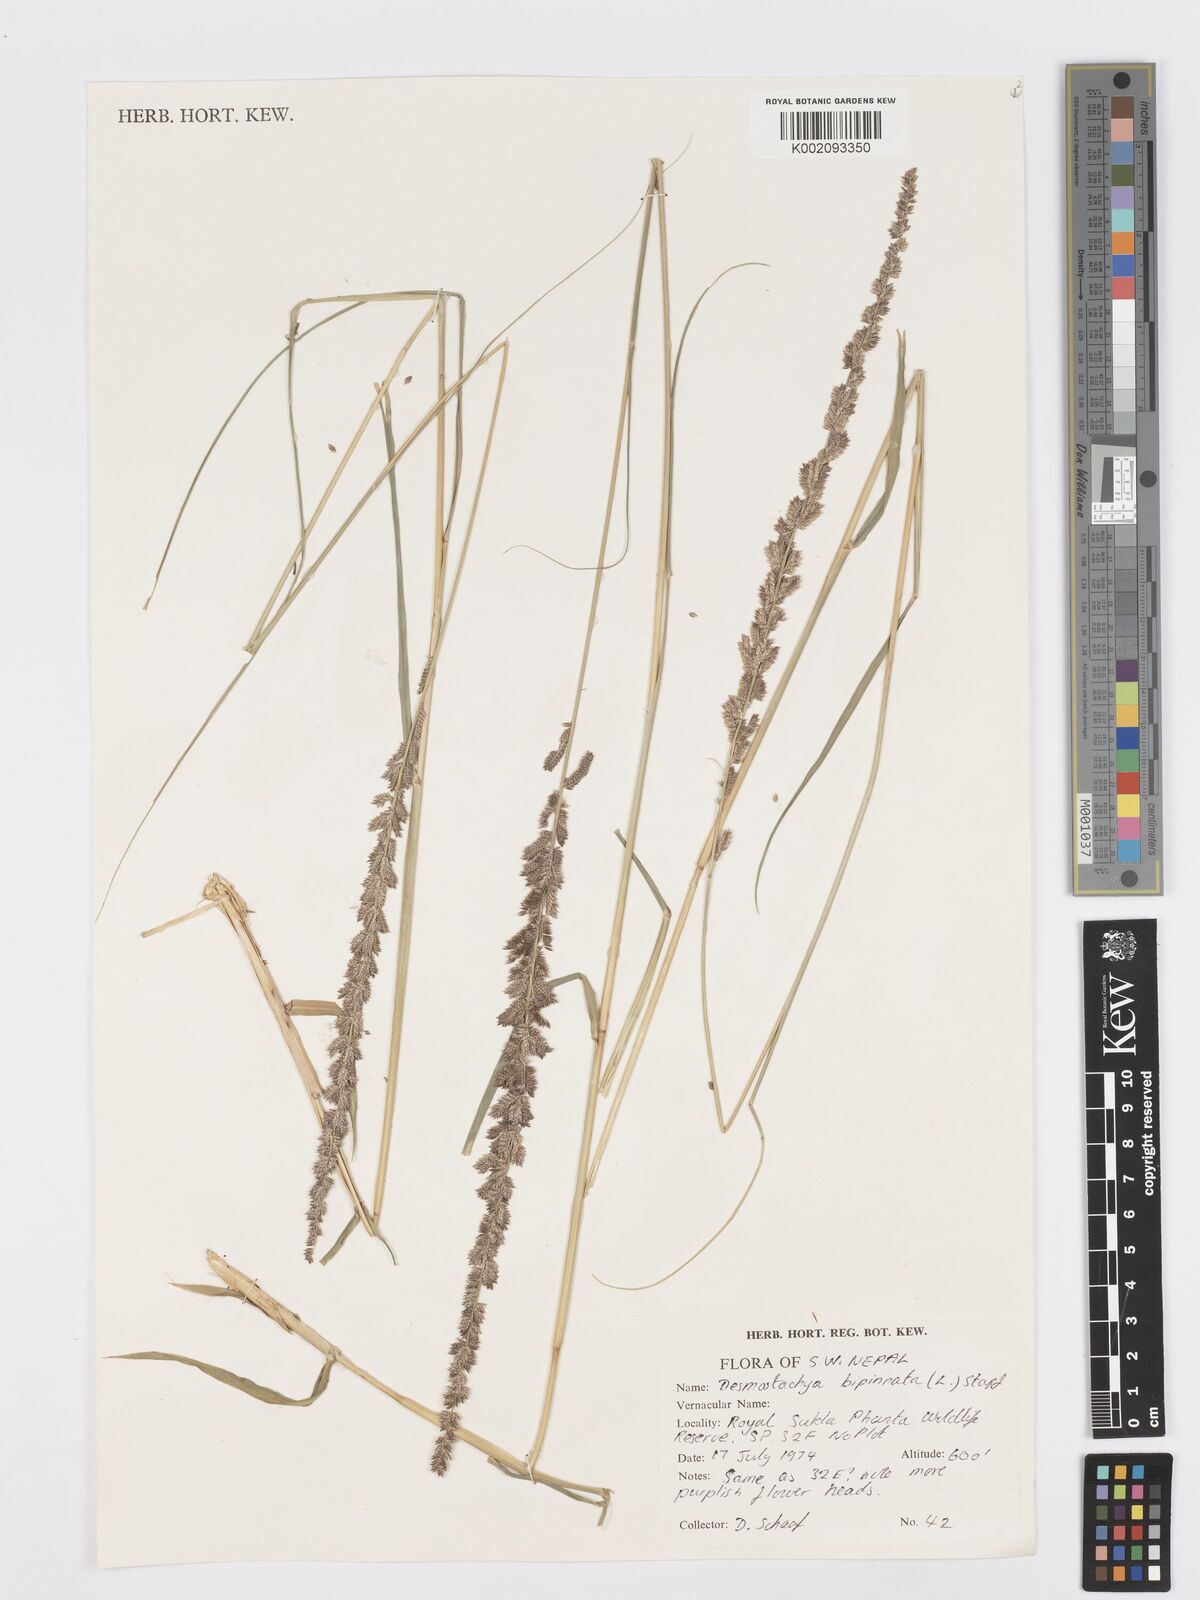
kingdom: Plantae
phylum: Tracheophyta
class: Liliopsida
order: Poales
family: Poaceae
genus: Desmostachya
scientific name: Desmostachya bipinnata
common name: Crowfoot grass
